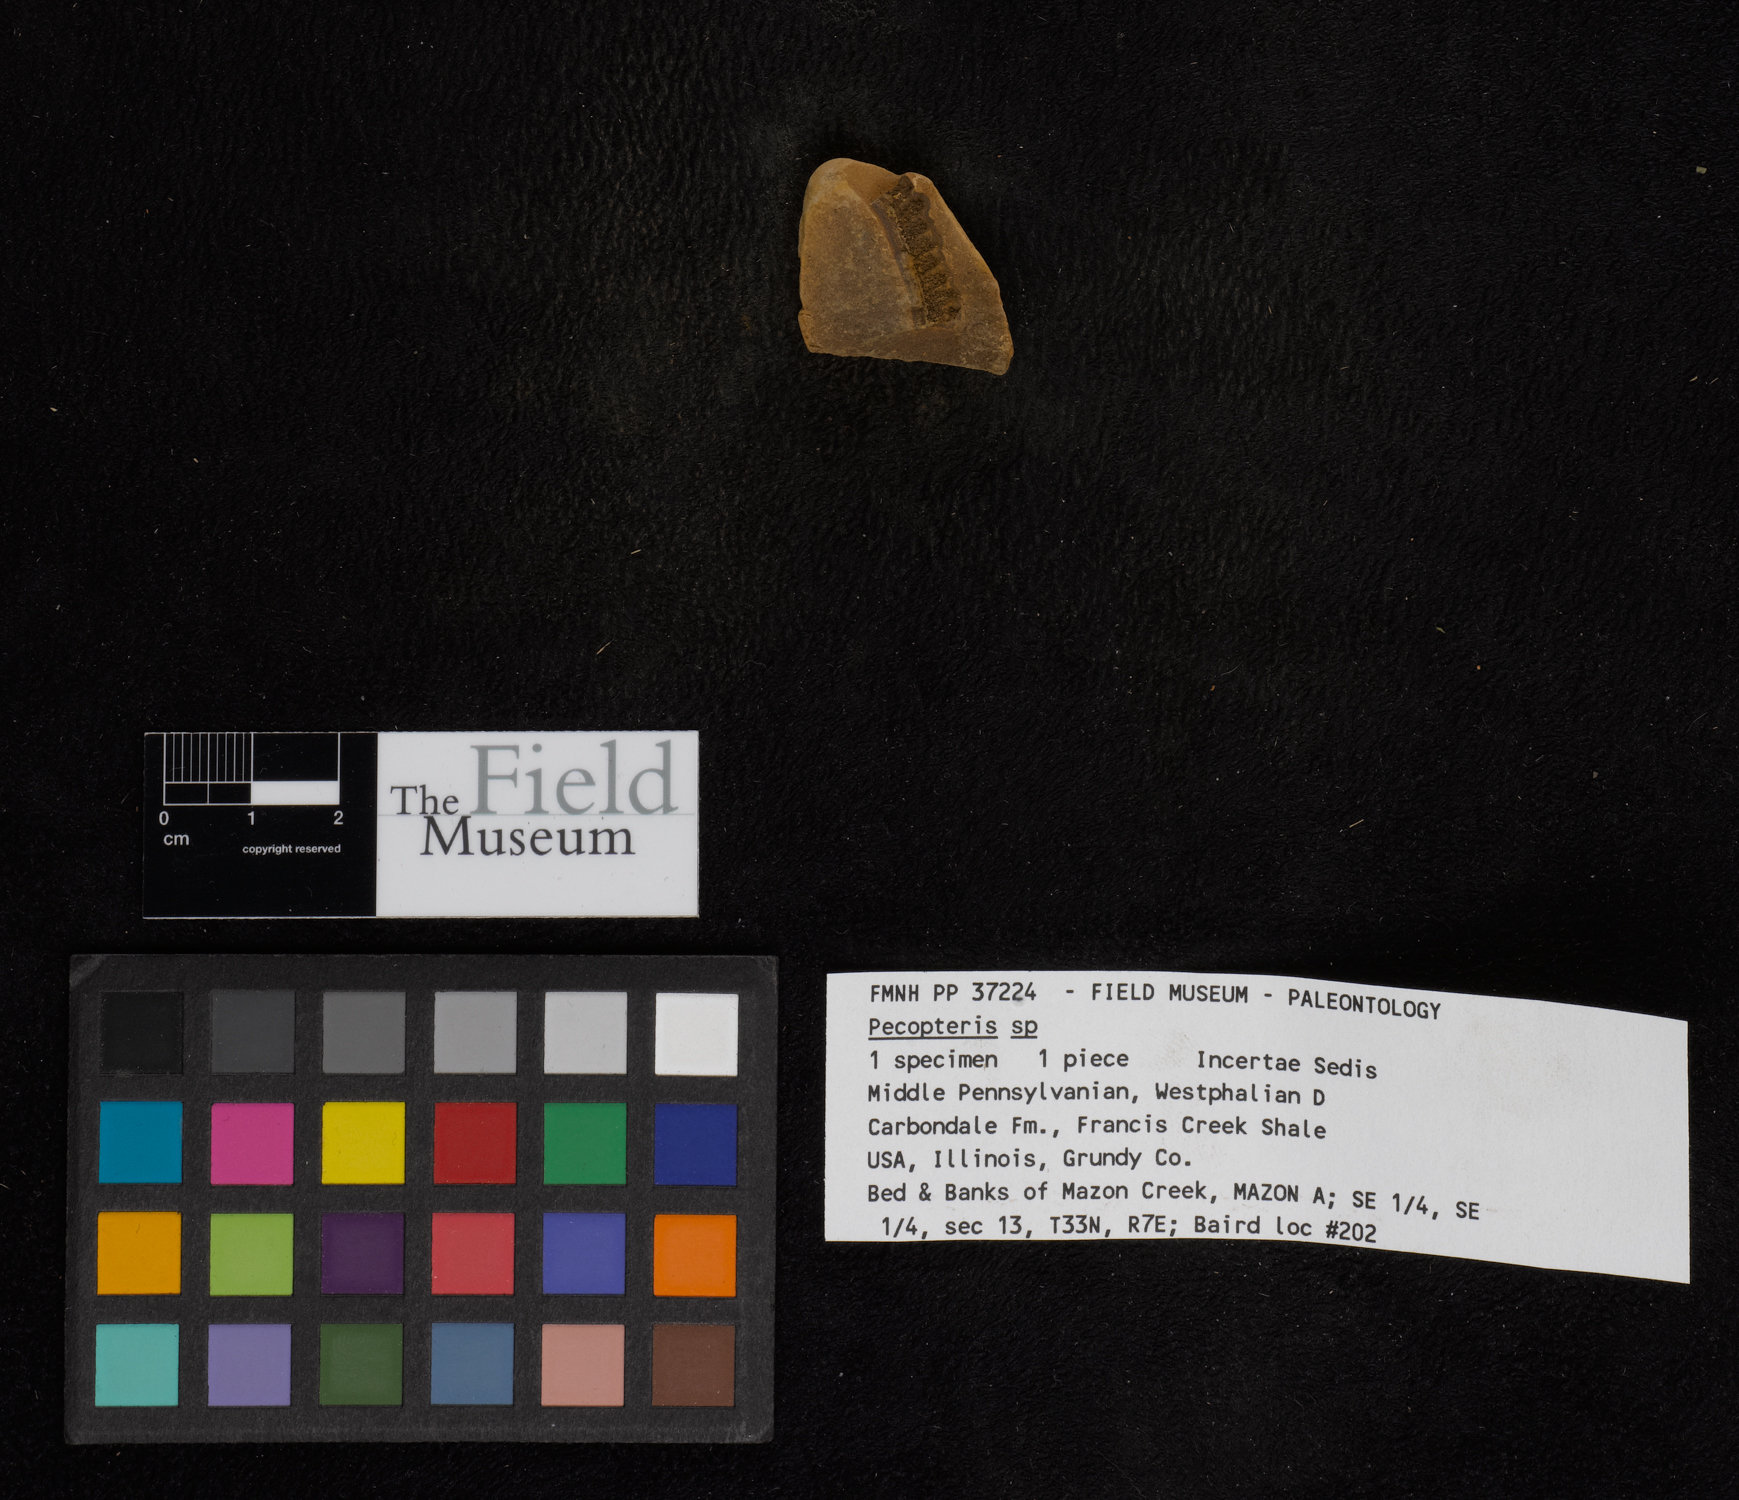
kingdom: Plantae
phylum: Tracheophyta
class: Polypodiopsida
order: Marattiales
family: Asterothecaceae
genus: Pecopteris
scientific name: Pecopteris
